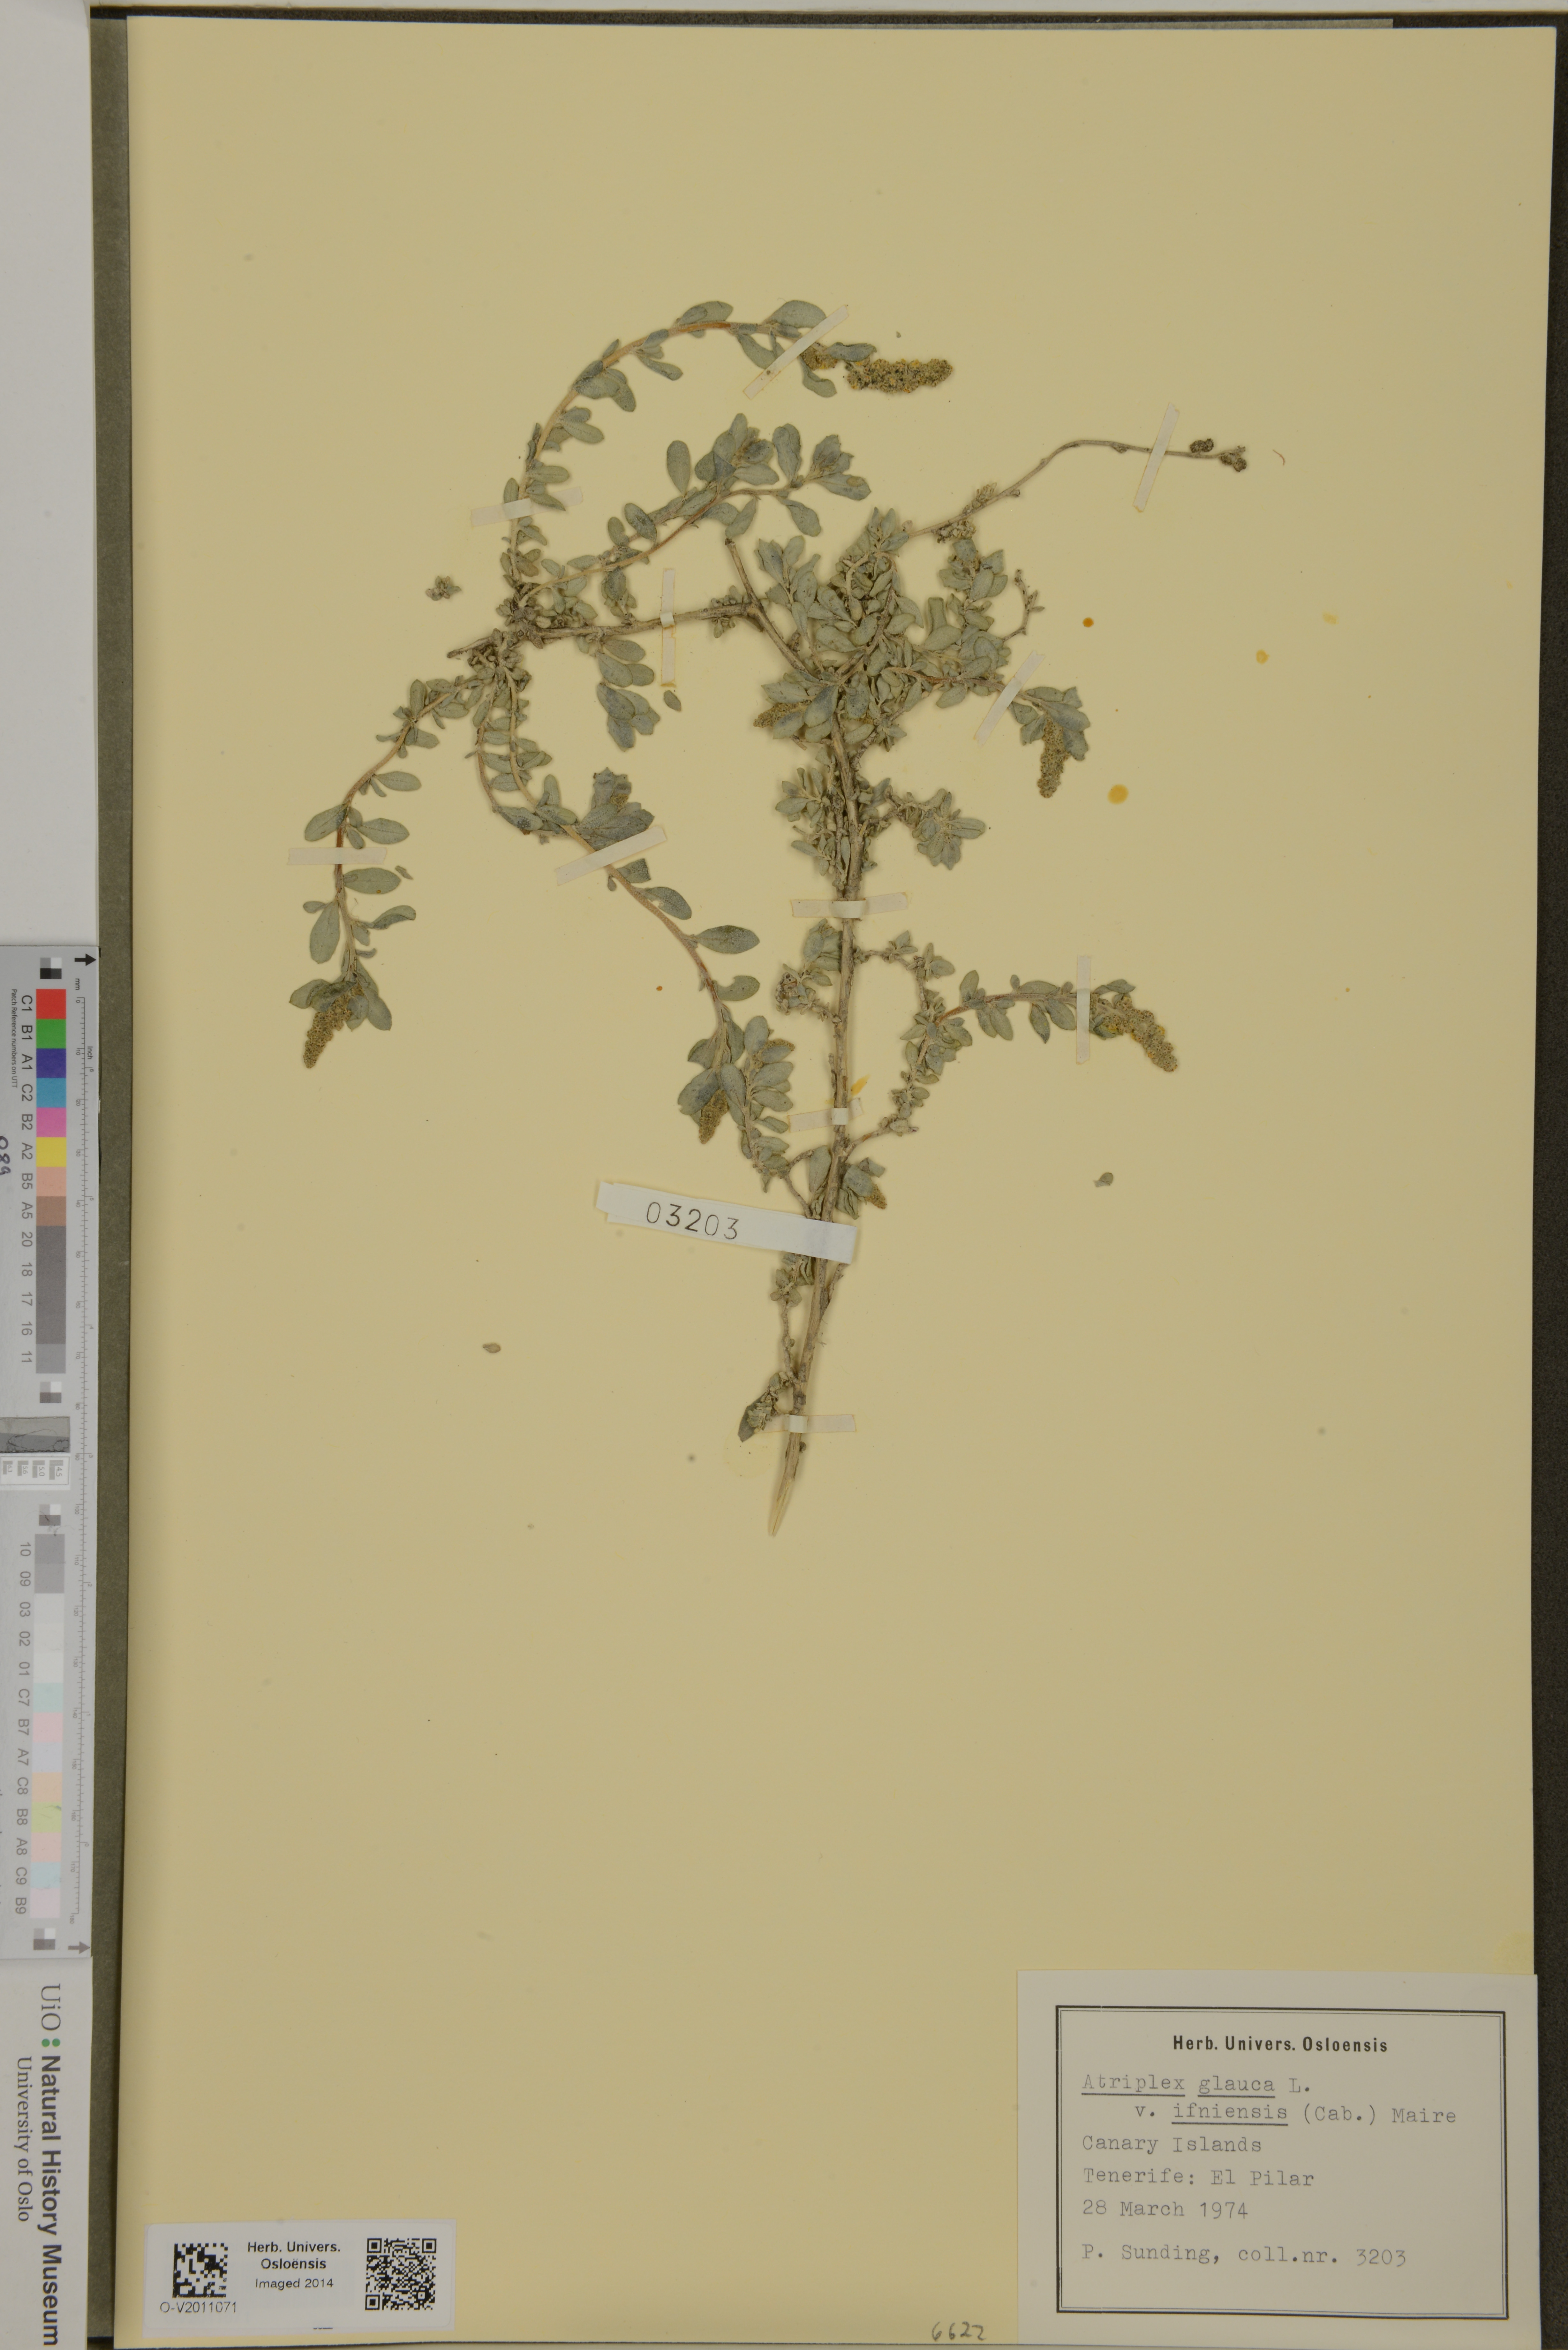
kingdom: Plantae
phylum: Tracheophyta
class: Magnoliopsida
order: Caryophyllales
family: Amaranthaceae
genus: Atriplex
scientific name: Atriplex glauca
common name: Waxy saltbush
